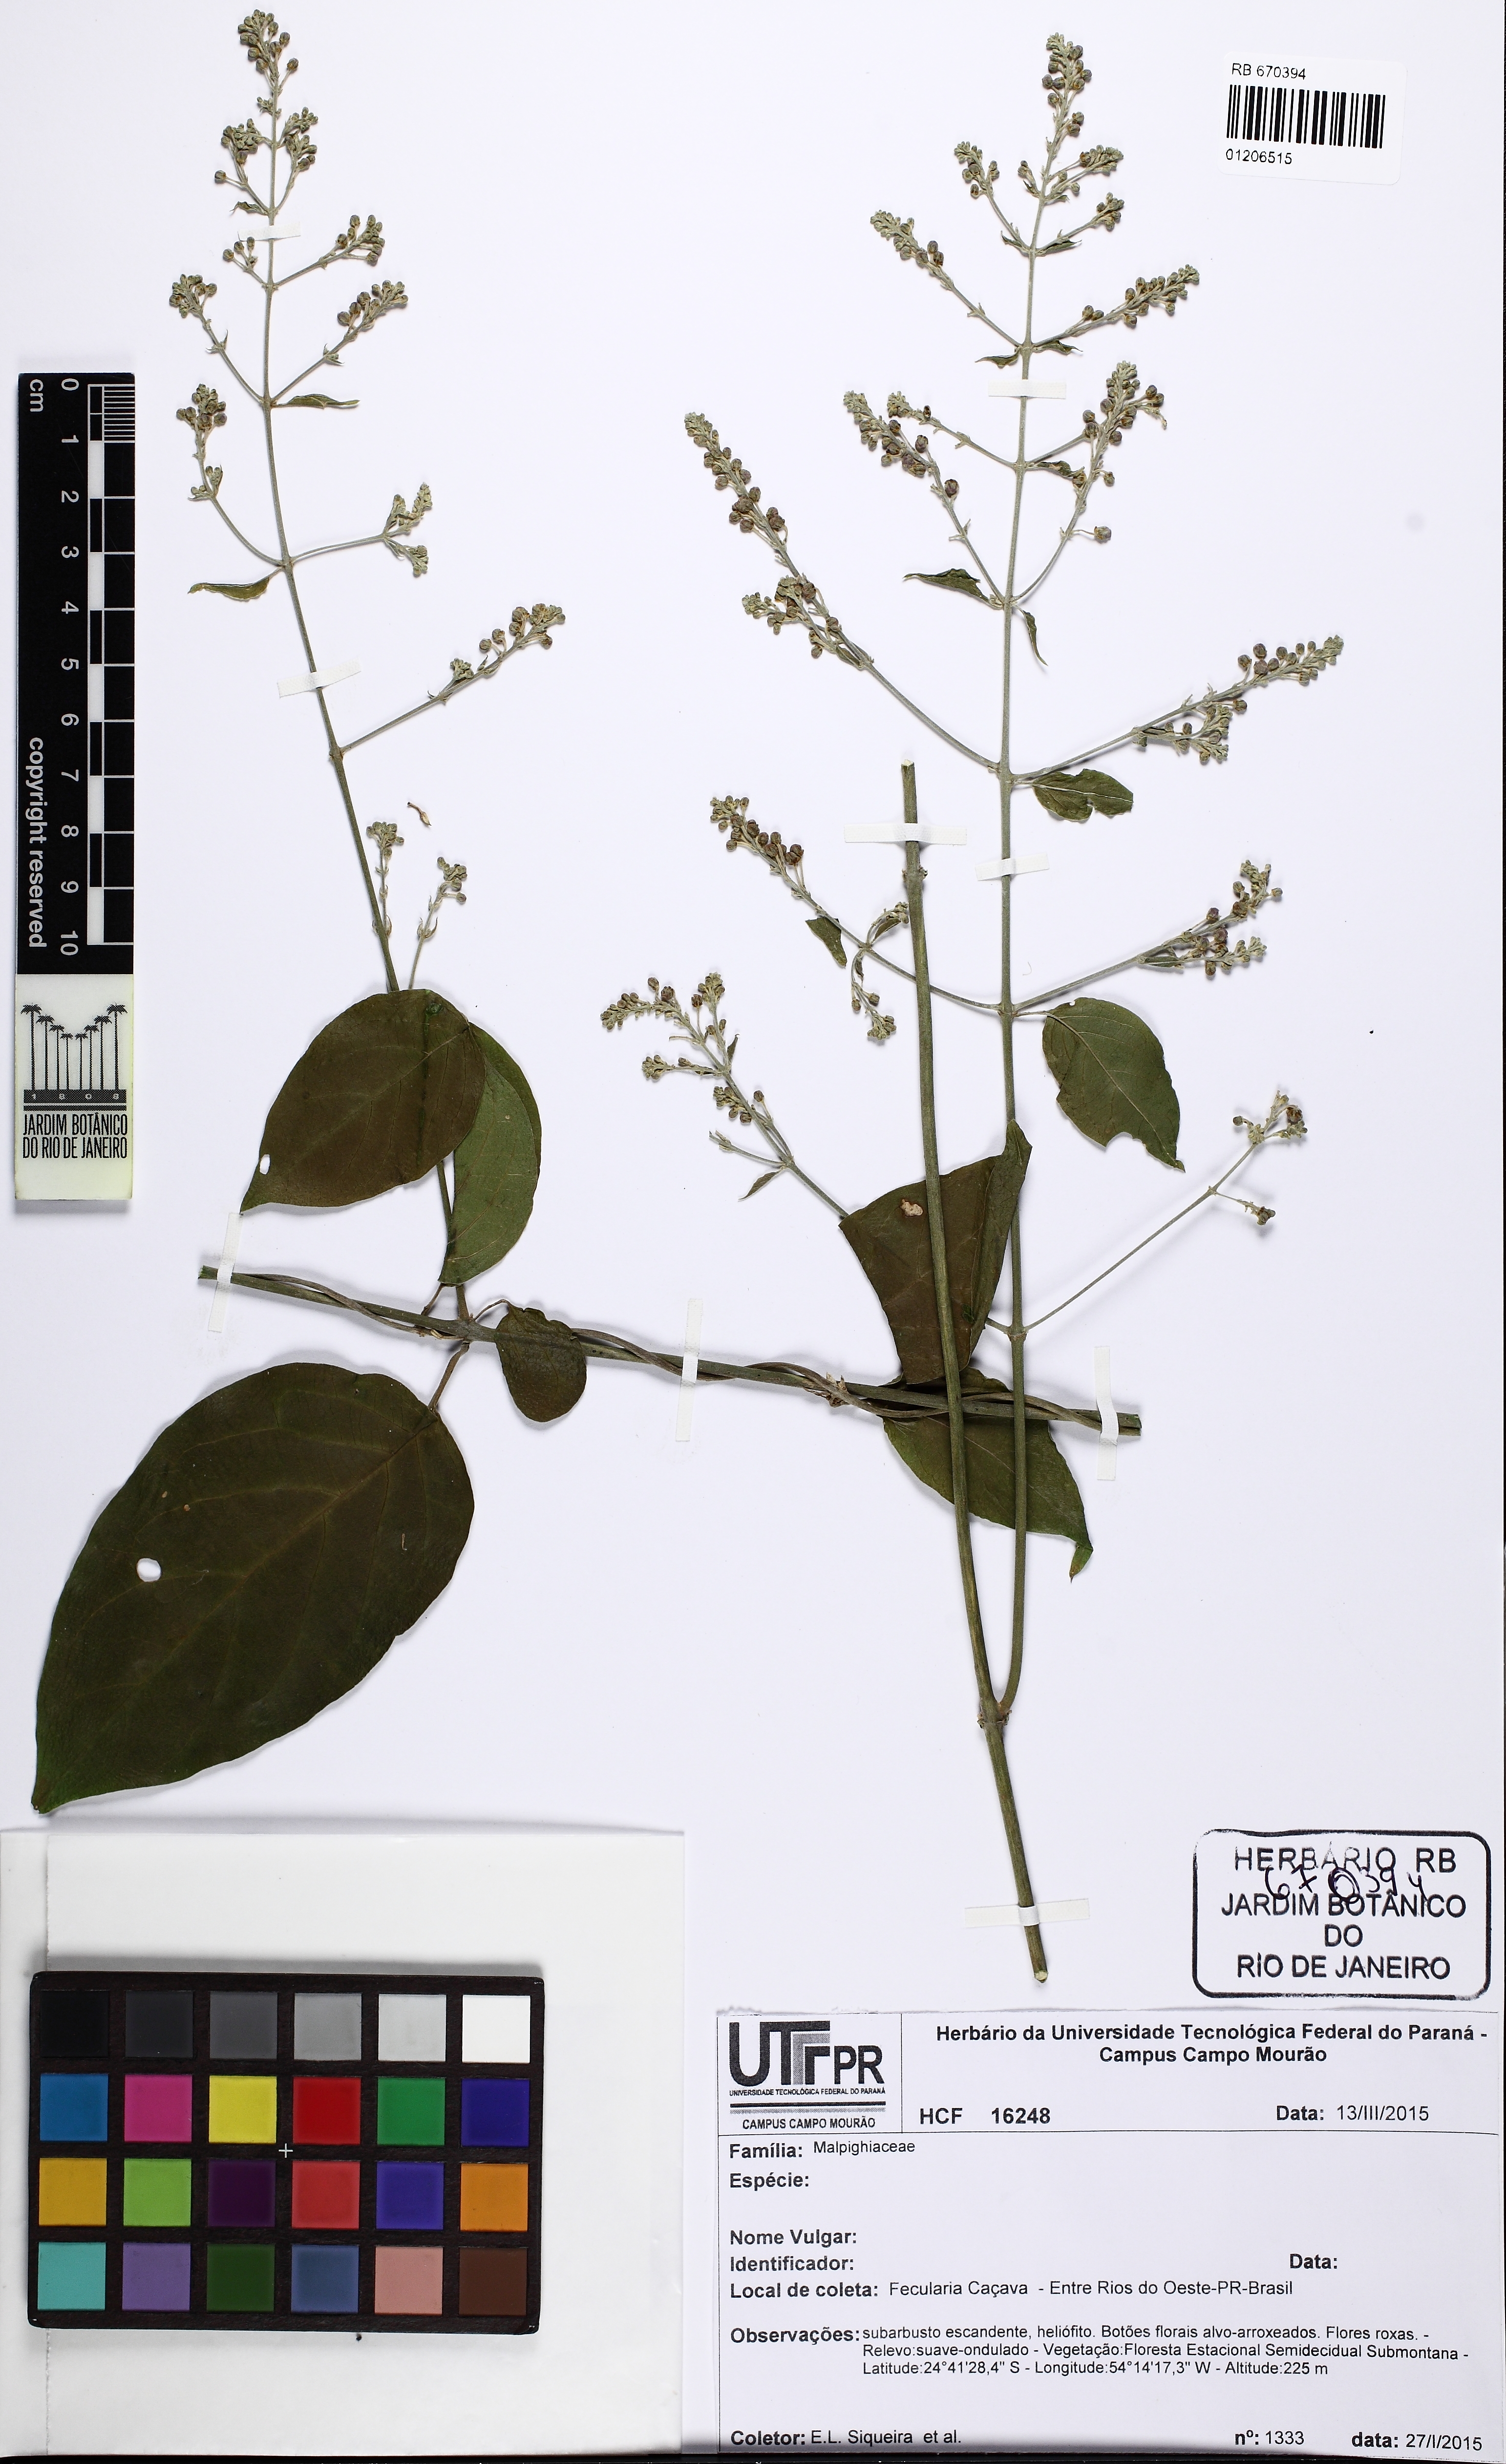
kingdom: Plantae
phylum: Tracheophyta
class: Magnoliopsida
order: Malpighiales
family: Malpighiaceae
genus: Mascagnia
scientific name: Mascagnia
